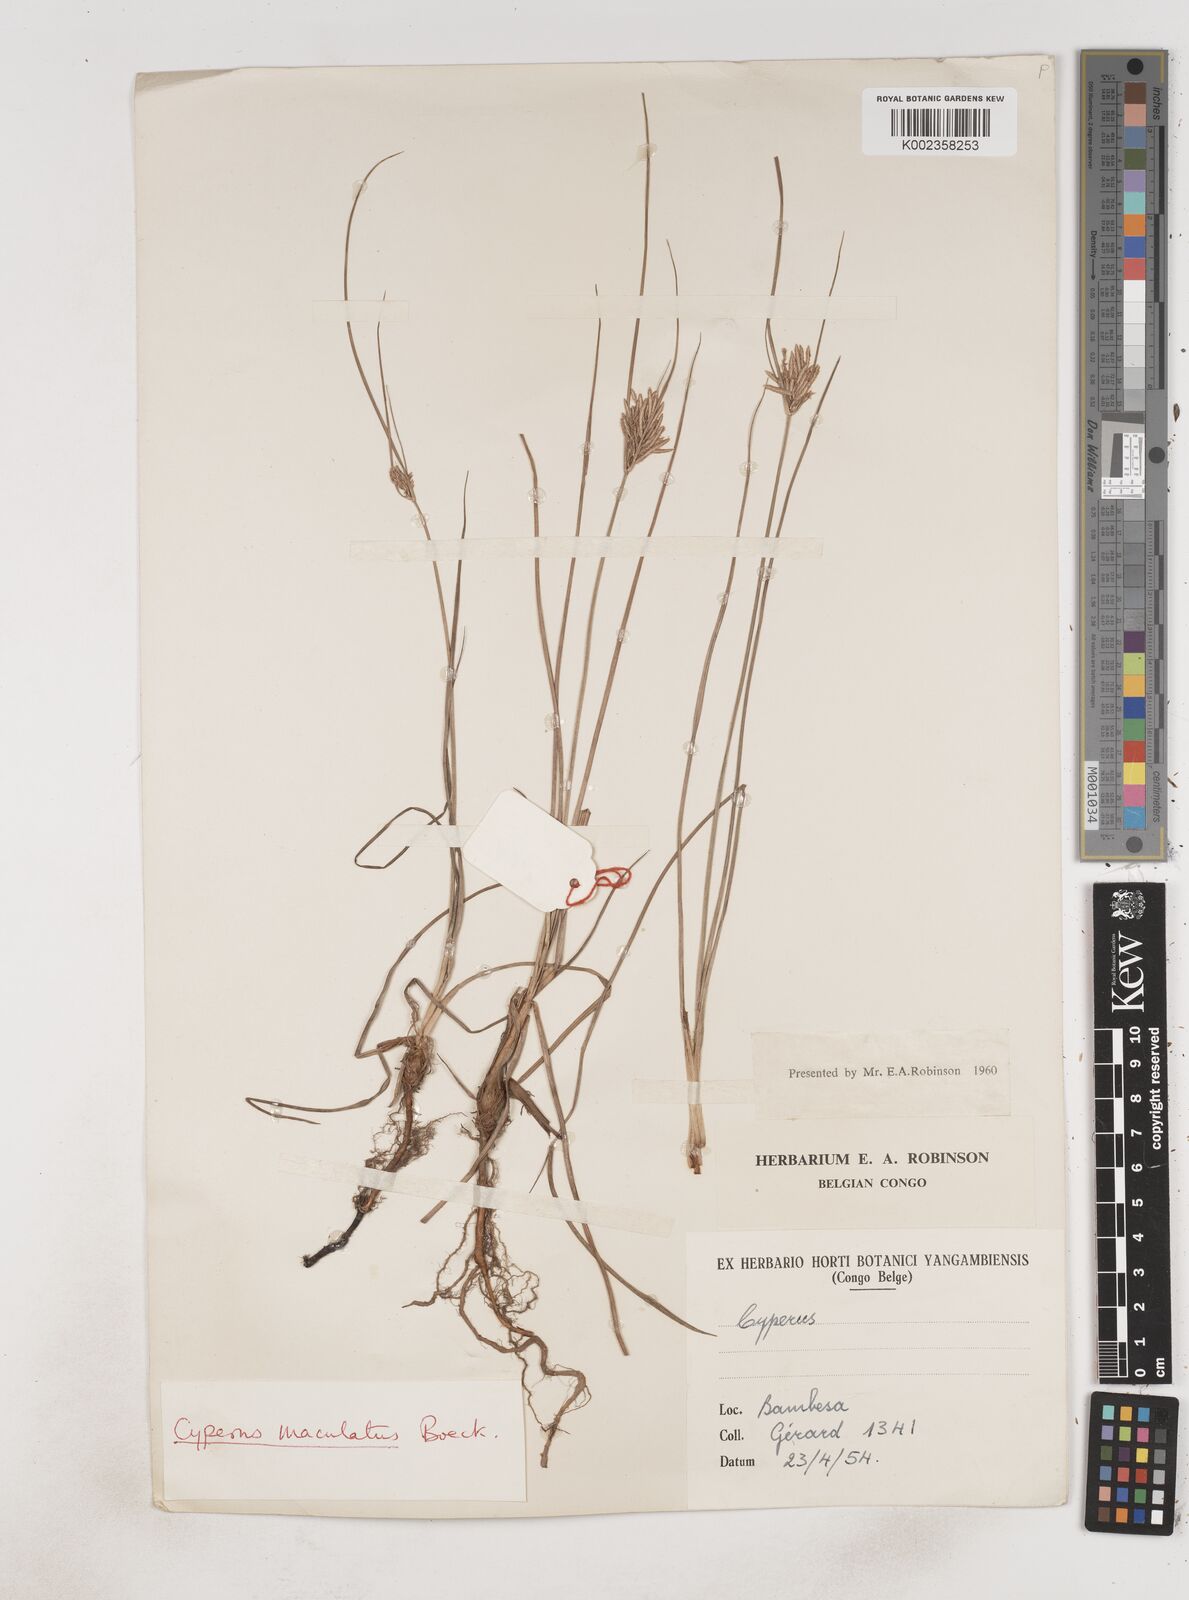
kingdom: Plantae
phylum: Tracheophyta
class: Liliopsida
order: Poales
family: Cyperaceae
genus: Cyperus
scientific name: Cyperus maculatus
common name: Maculated sedge
